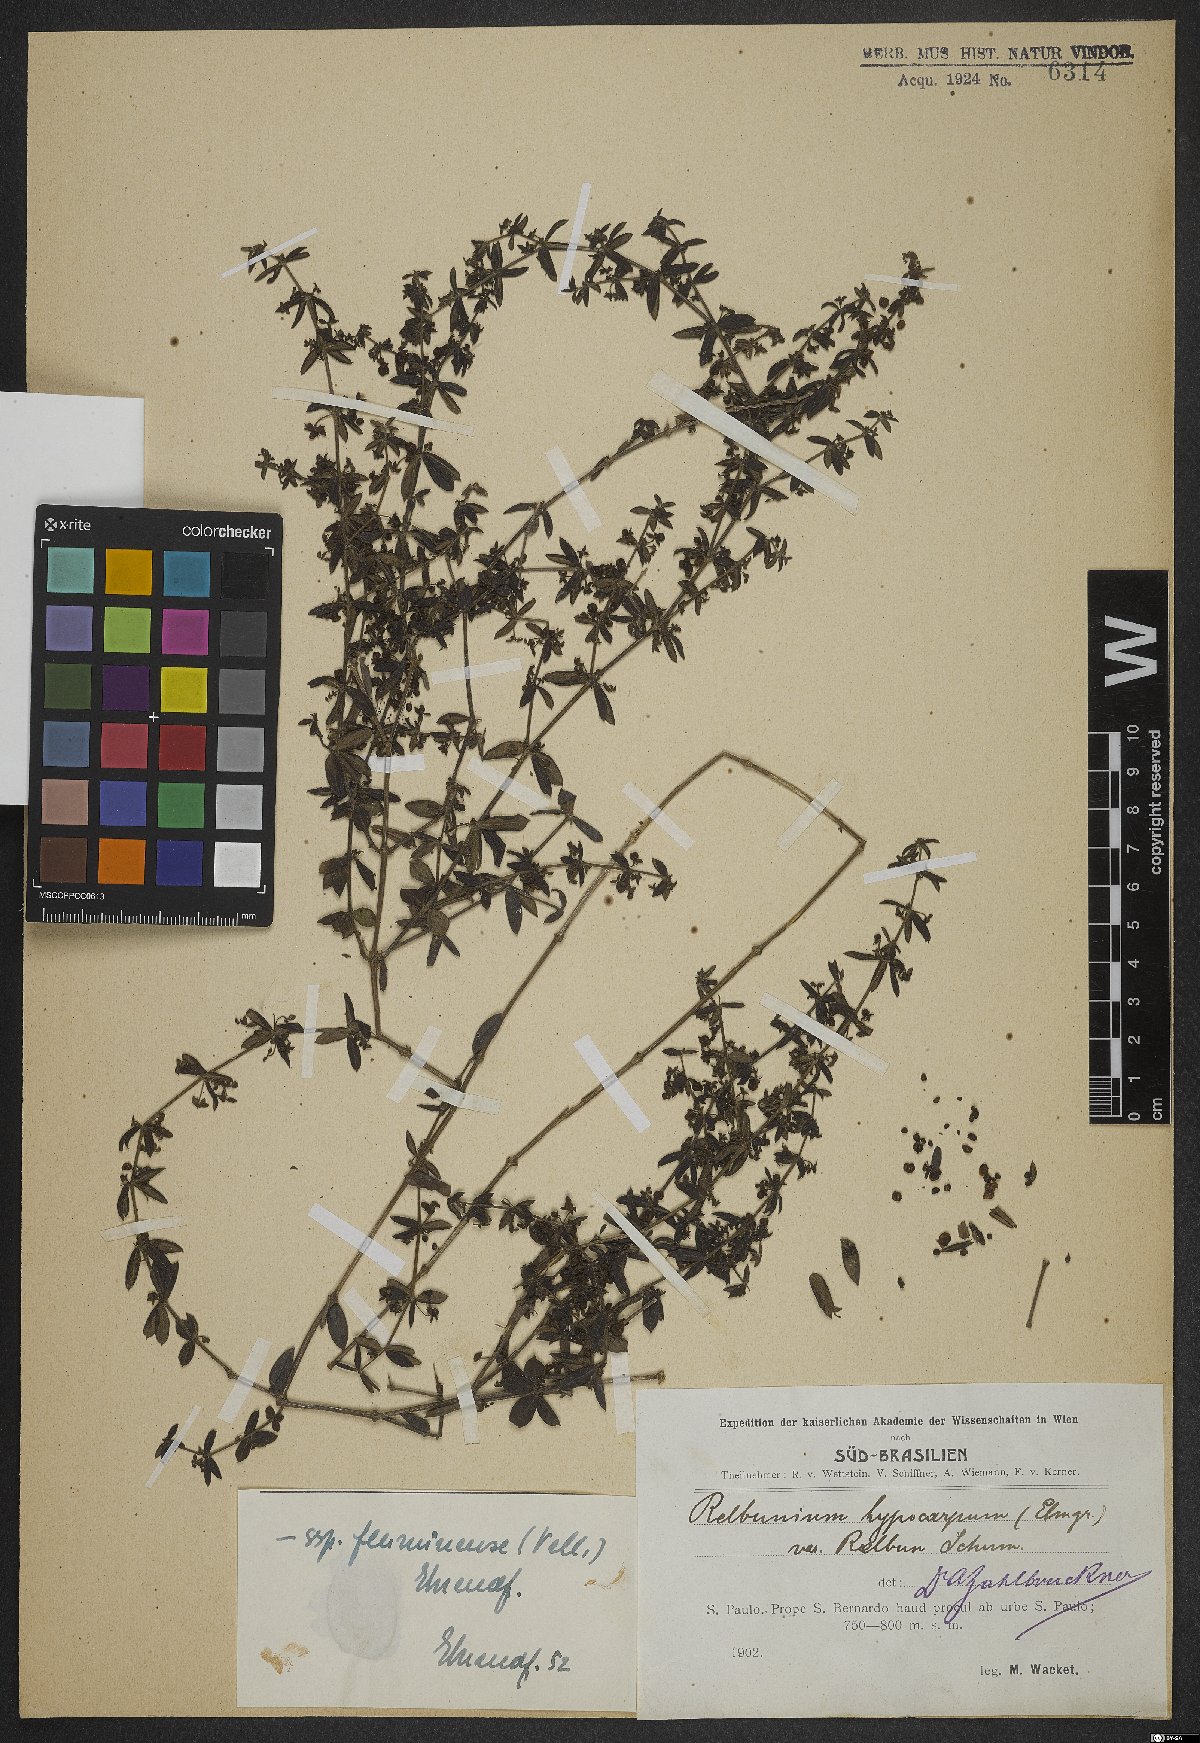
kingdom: Plantae
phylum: Tracheophyta
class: Magnoliopsida
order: Gentianales
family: Rubiaceae
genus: Galium
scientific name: Galium hypocarpium
